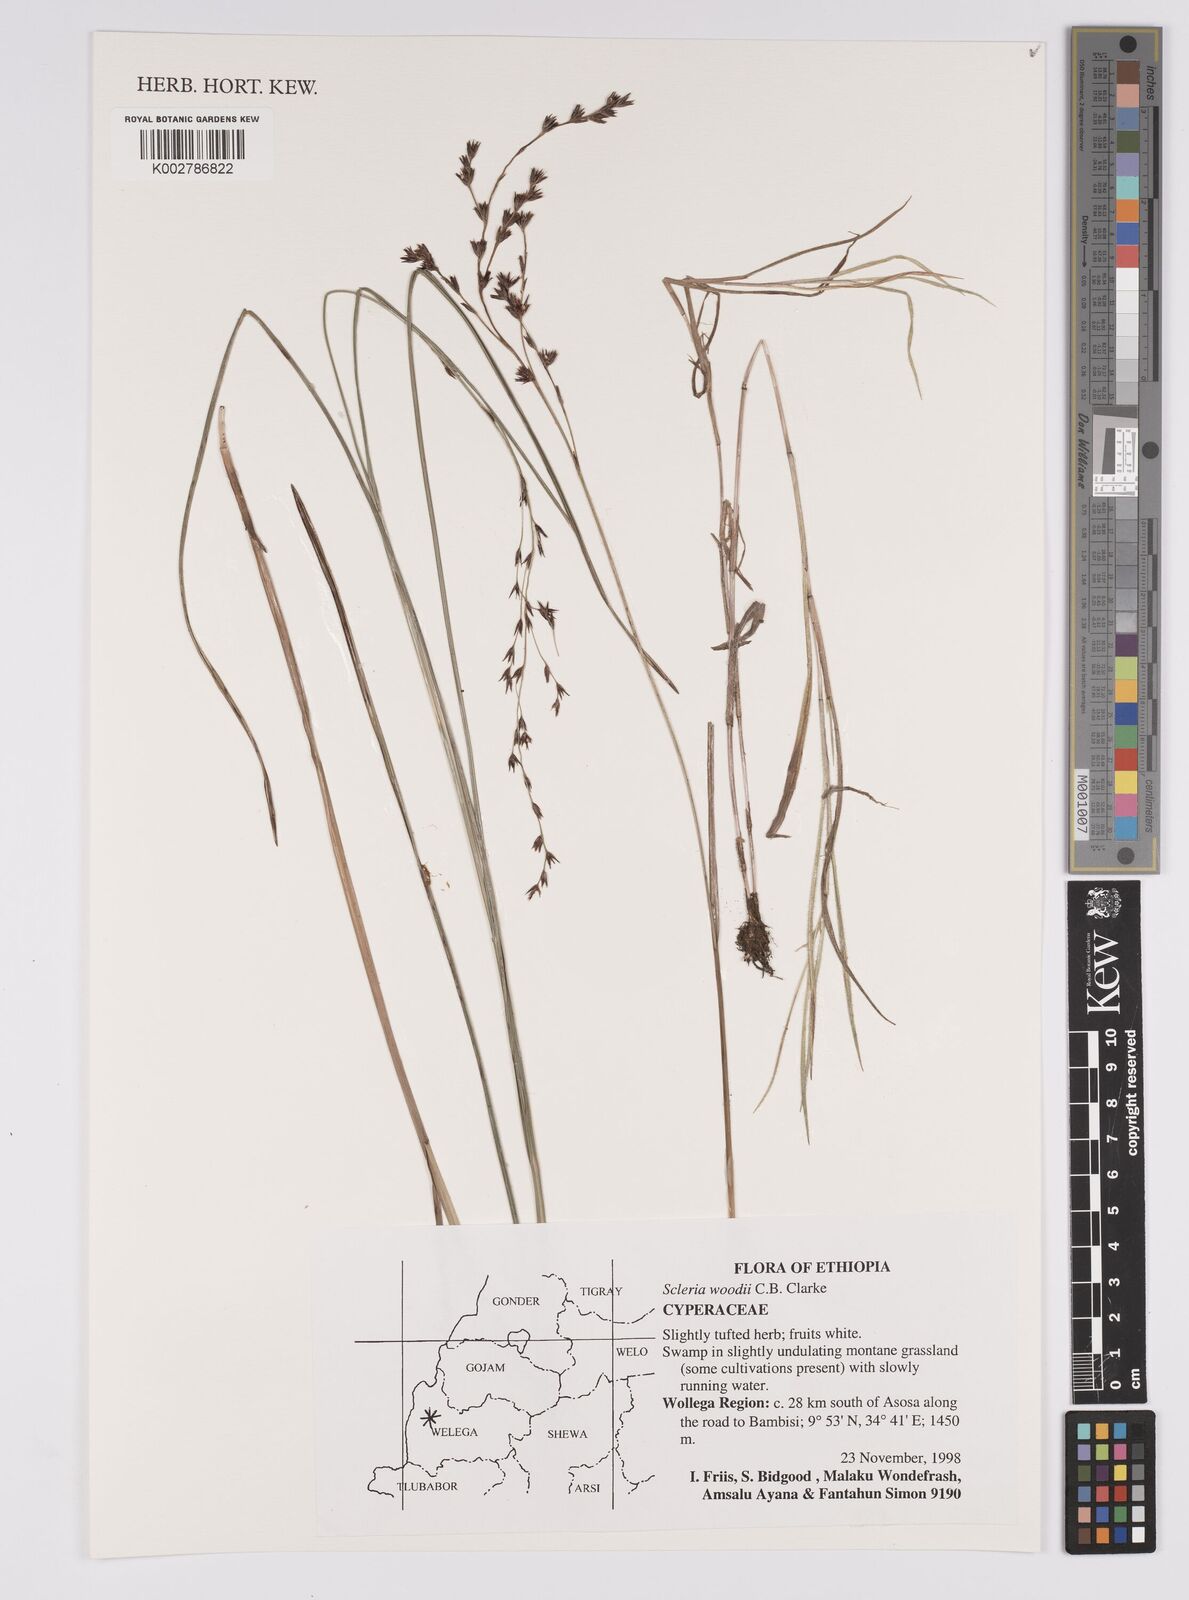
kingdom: Plantae
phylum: Tracheophyta
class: Liliopsida
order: Poales
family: Cyperaceae
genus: Scleria
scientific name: Scleria woodii
